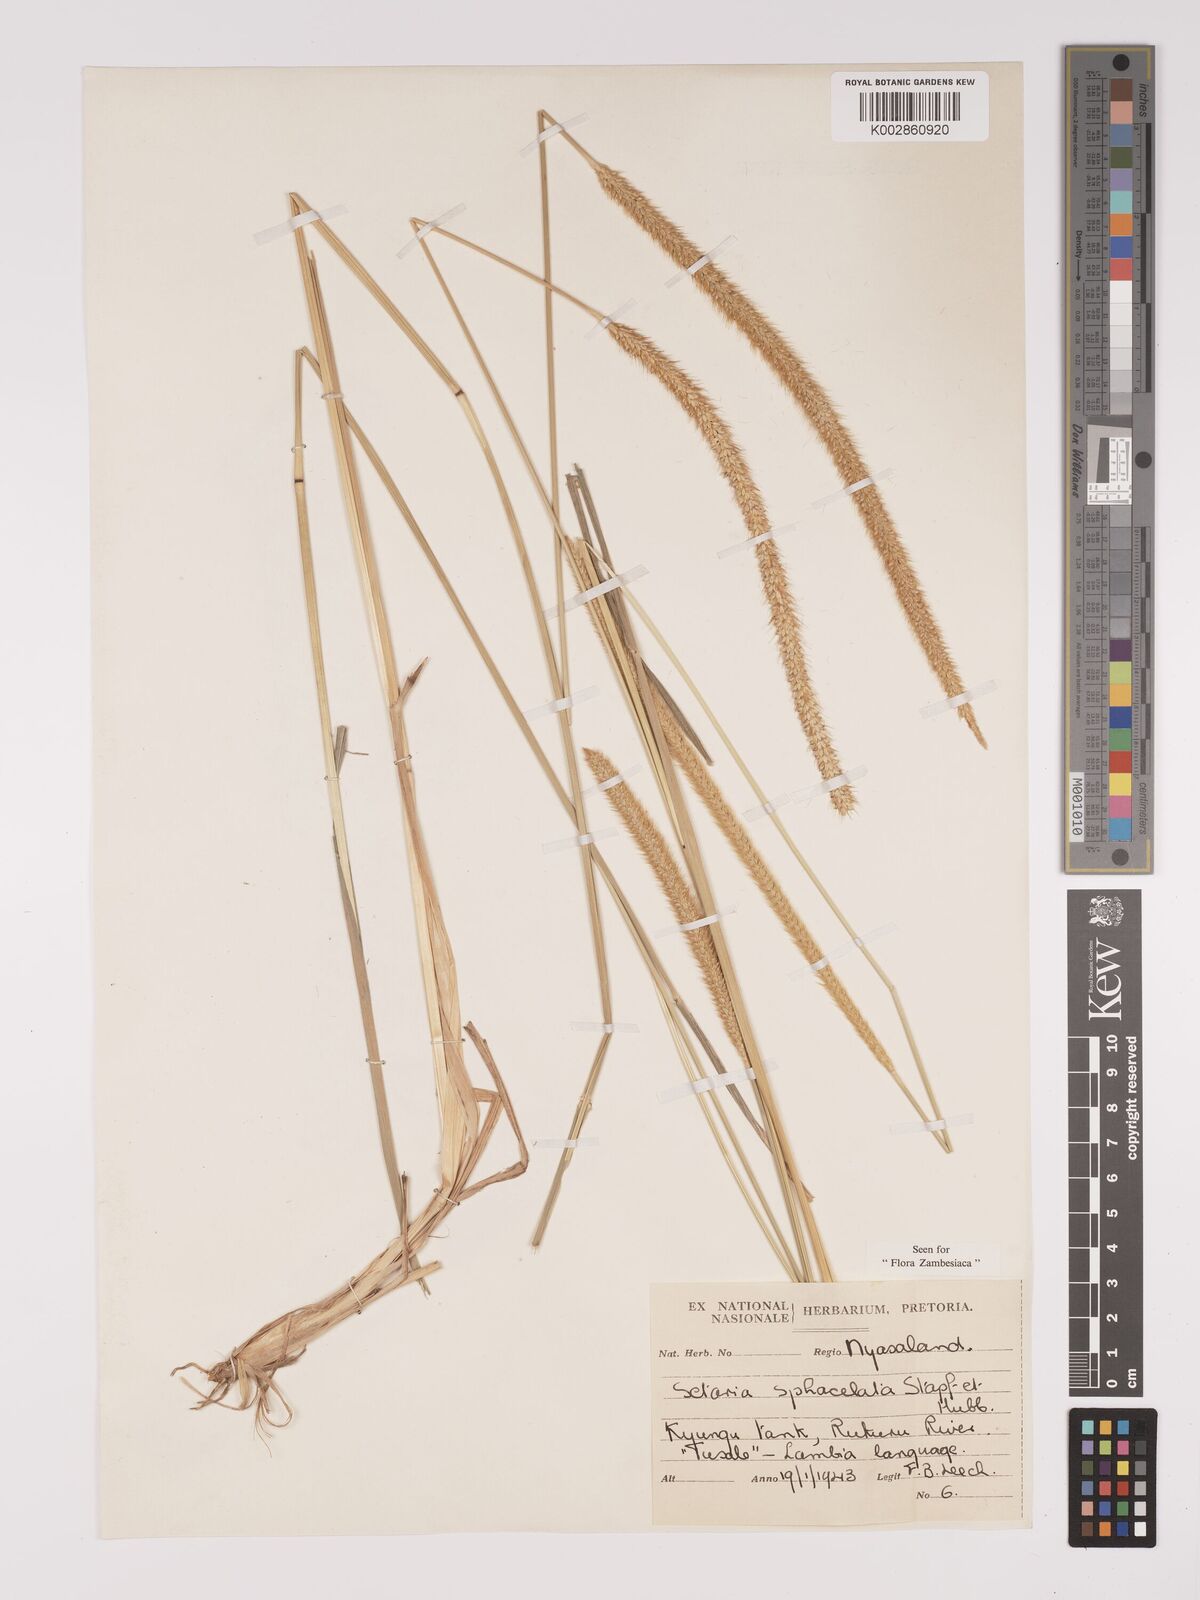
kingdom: Plantae
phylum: Tracheophyta
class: Liliopsida
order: Poales
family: Poaceae
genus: Setaria
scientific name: Setaria sphacelata
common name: African bristlegrass
